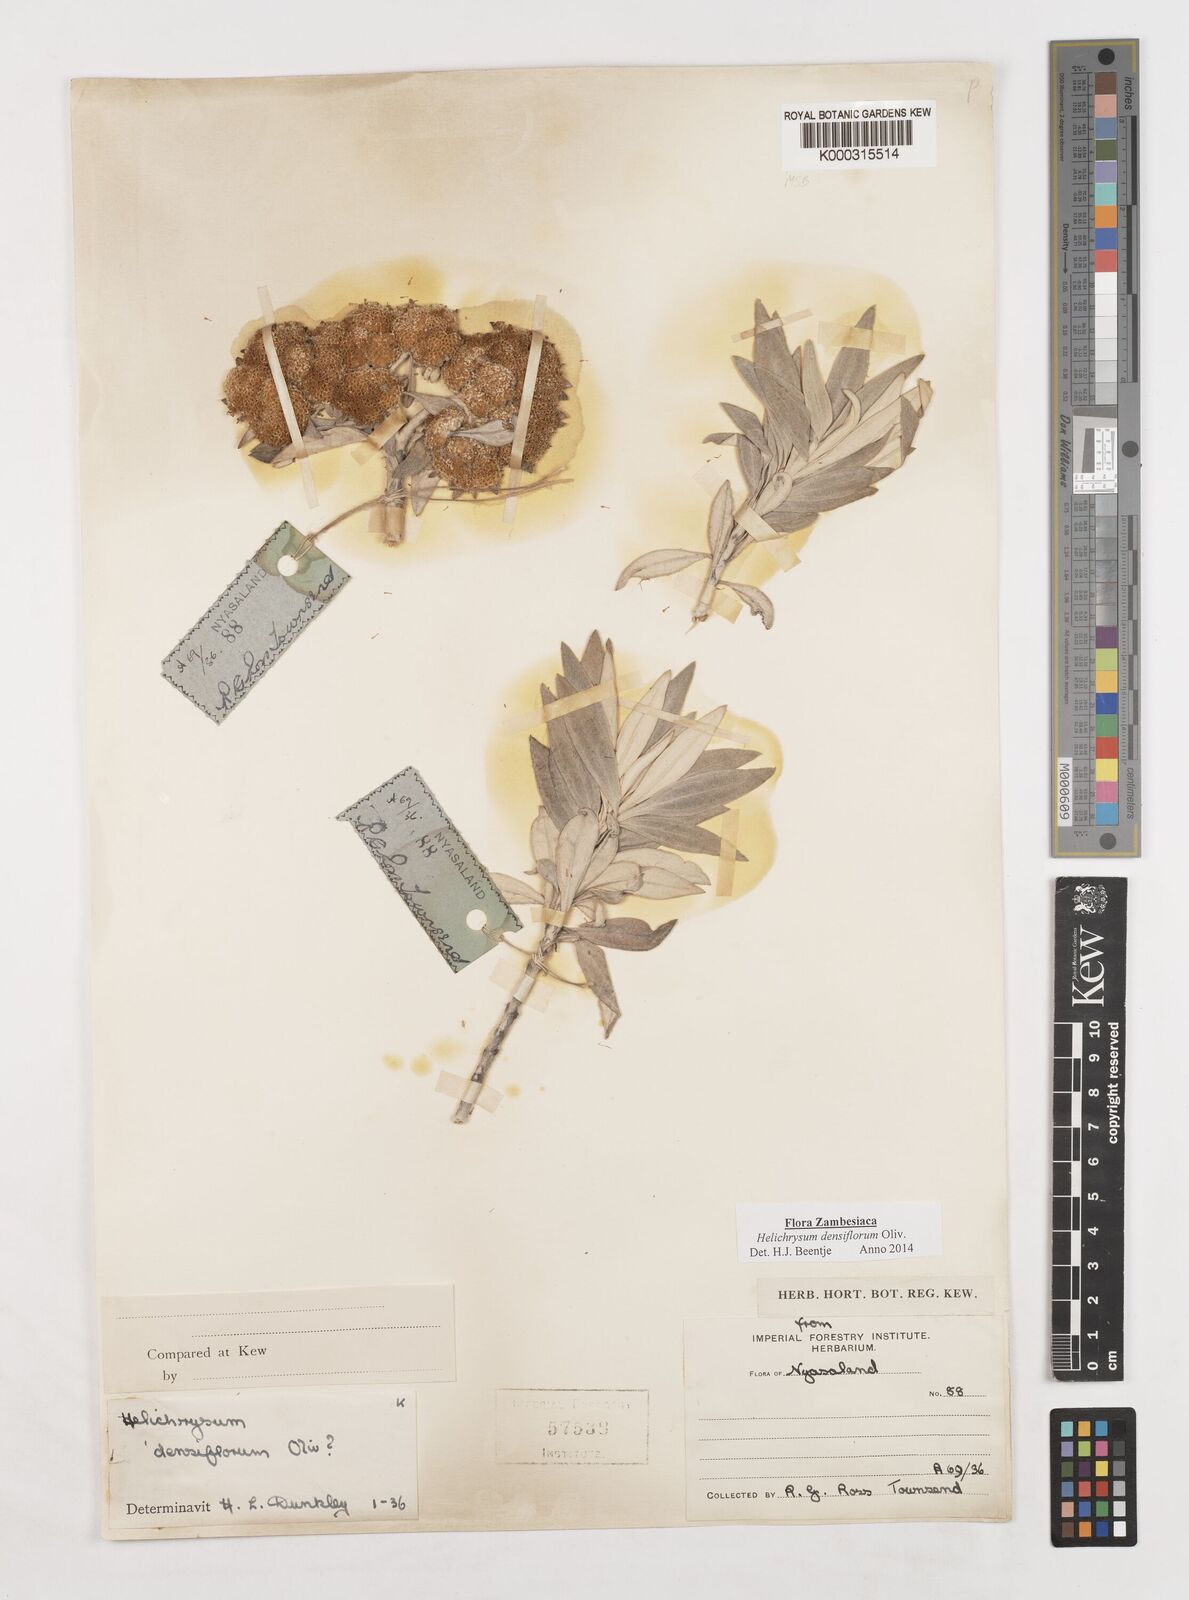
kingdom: Plantae
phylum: Tracheophyta
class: Magnoliopsida
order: Asterales
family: Asteraceae
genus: Helichrysum
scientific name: Helichrysum densiflorum
